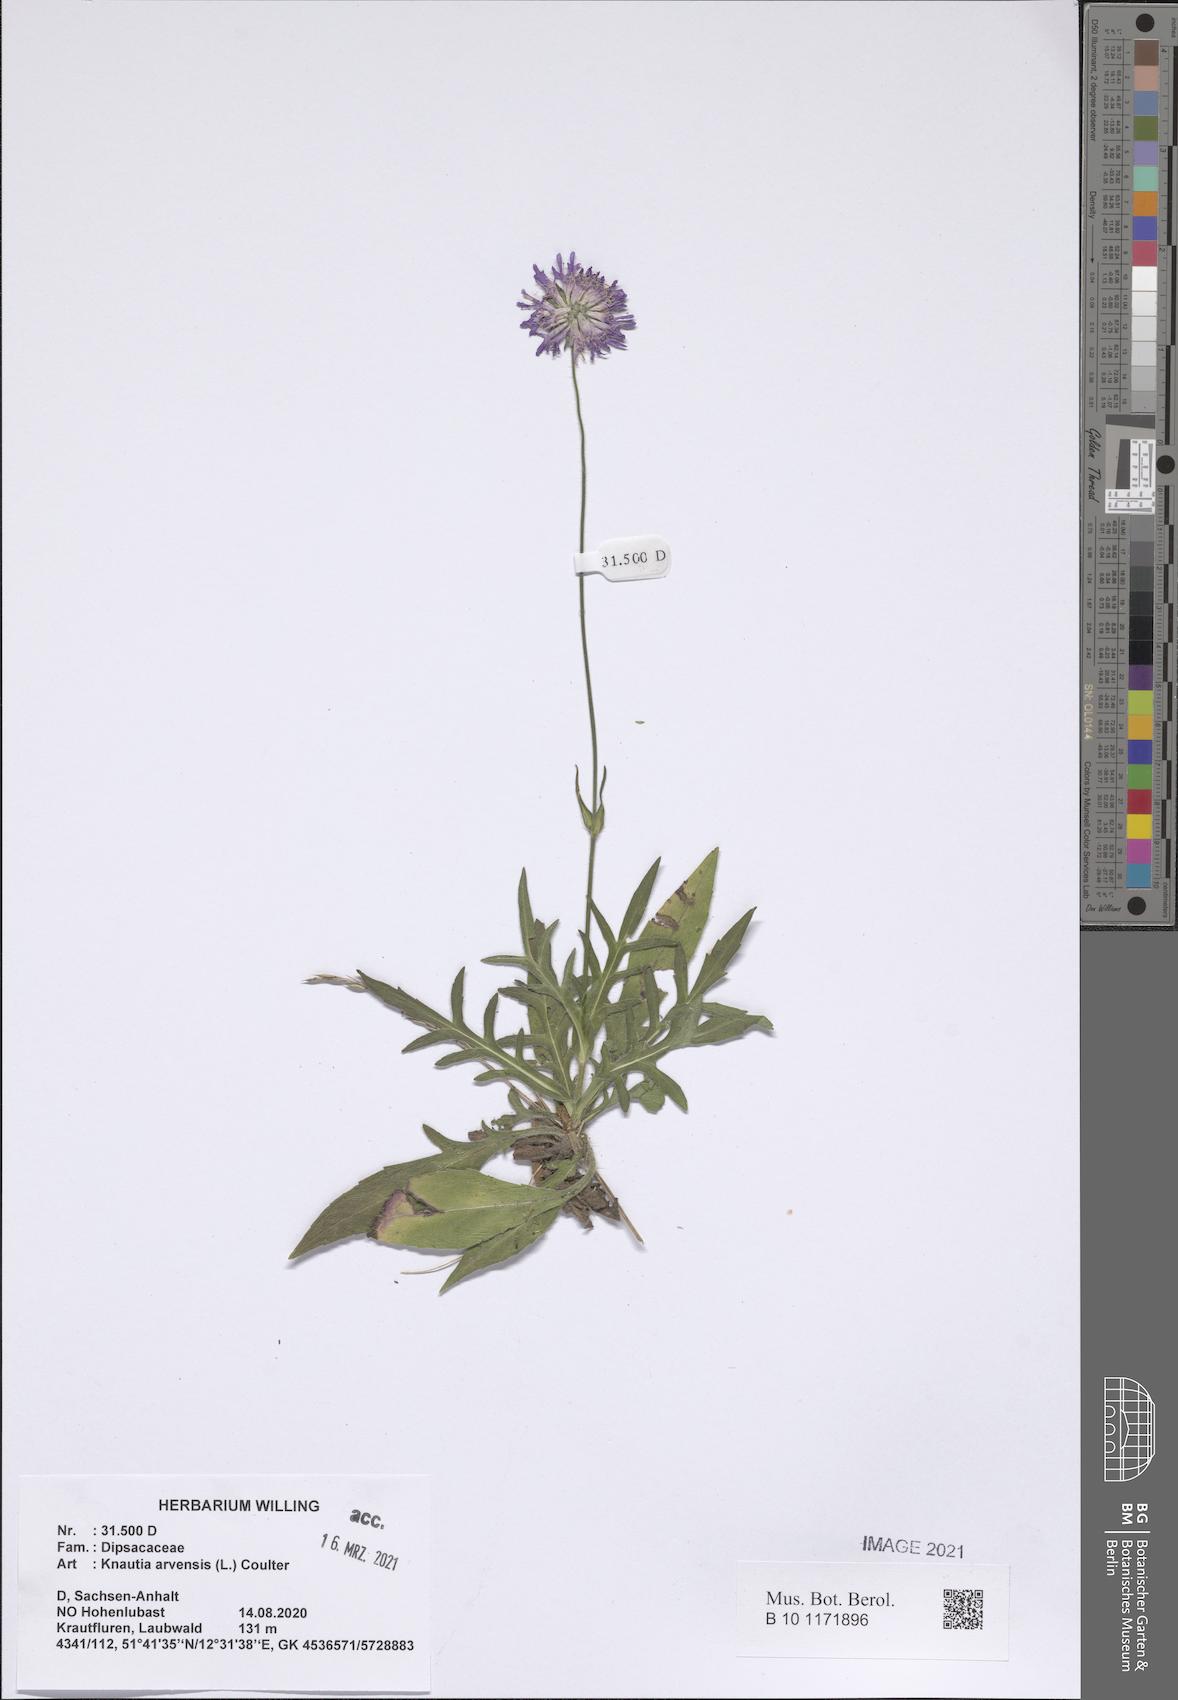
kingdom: Plantae
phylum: Tracheophyta
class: Magnoliopsida
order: Dipsacales
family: Caprifoliaceae
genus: Knautia
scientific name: Knautia arvensis
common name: Field scabiosa
